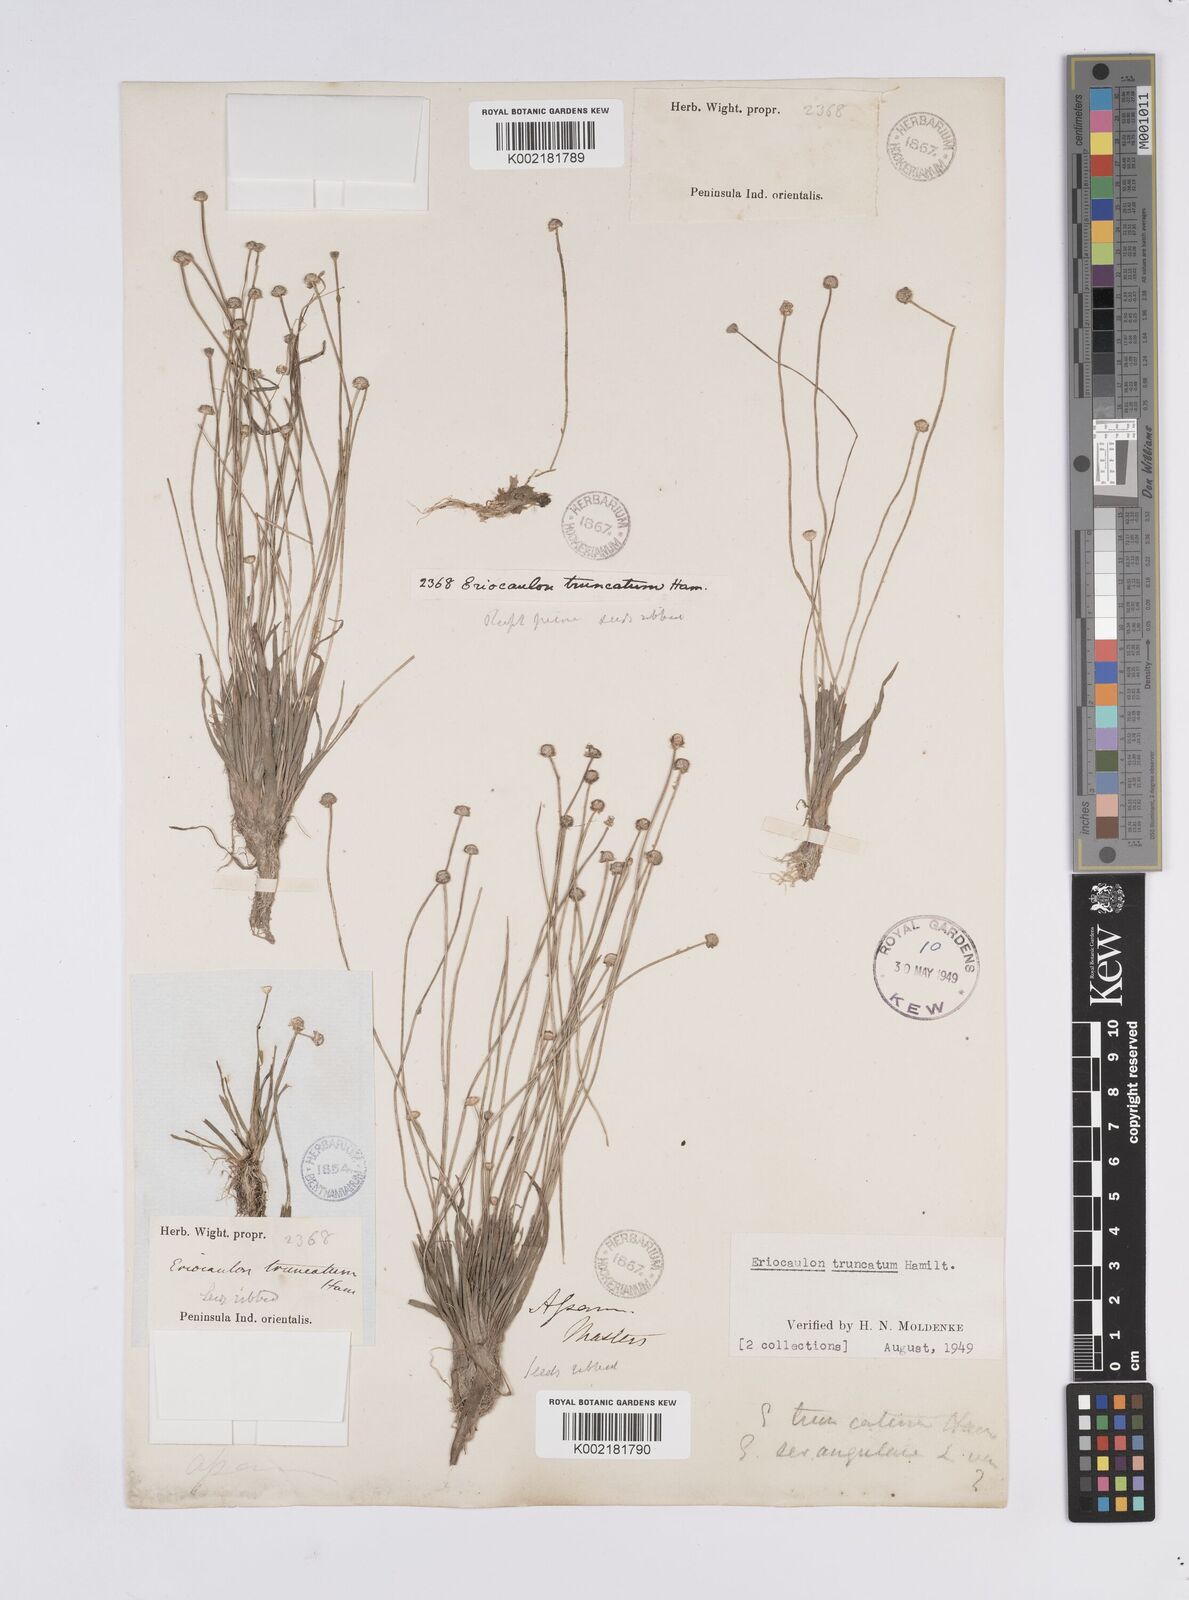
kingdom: Plantae
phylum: Tracheophyta
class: Liliopsida
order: Poales
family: Eriocaulaceae
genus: Eriocaulon
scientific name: Eriocaulon truncatum
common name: Short pipe-wort
